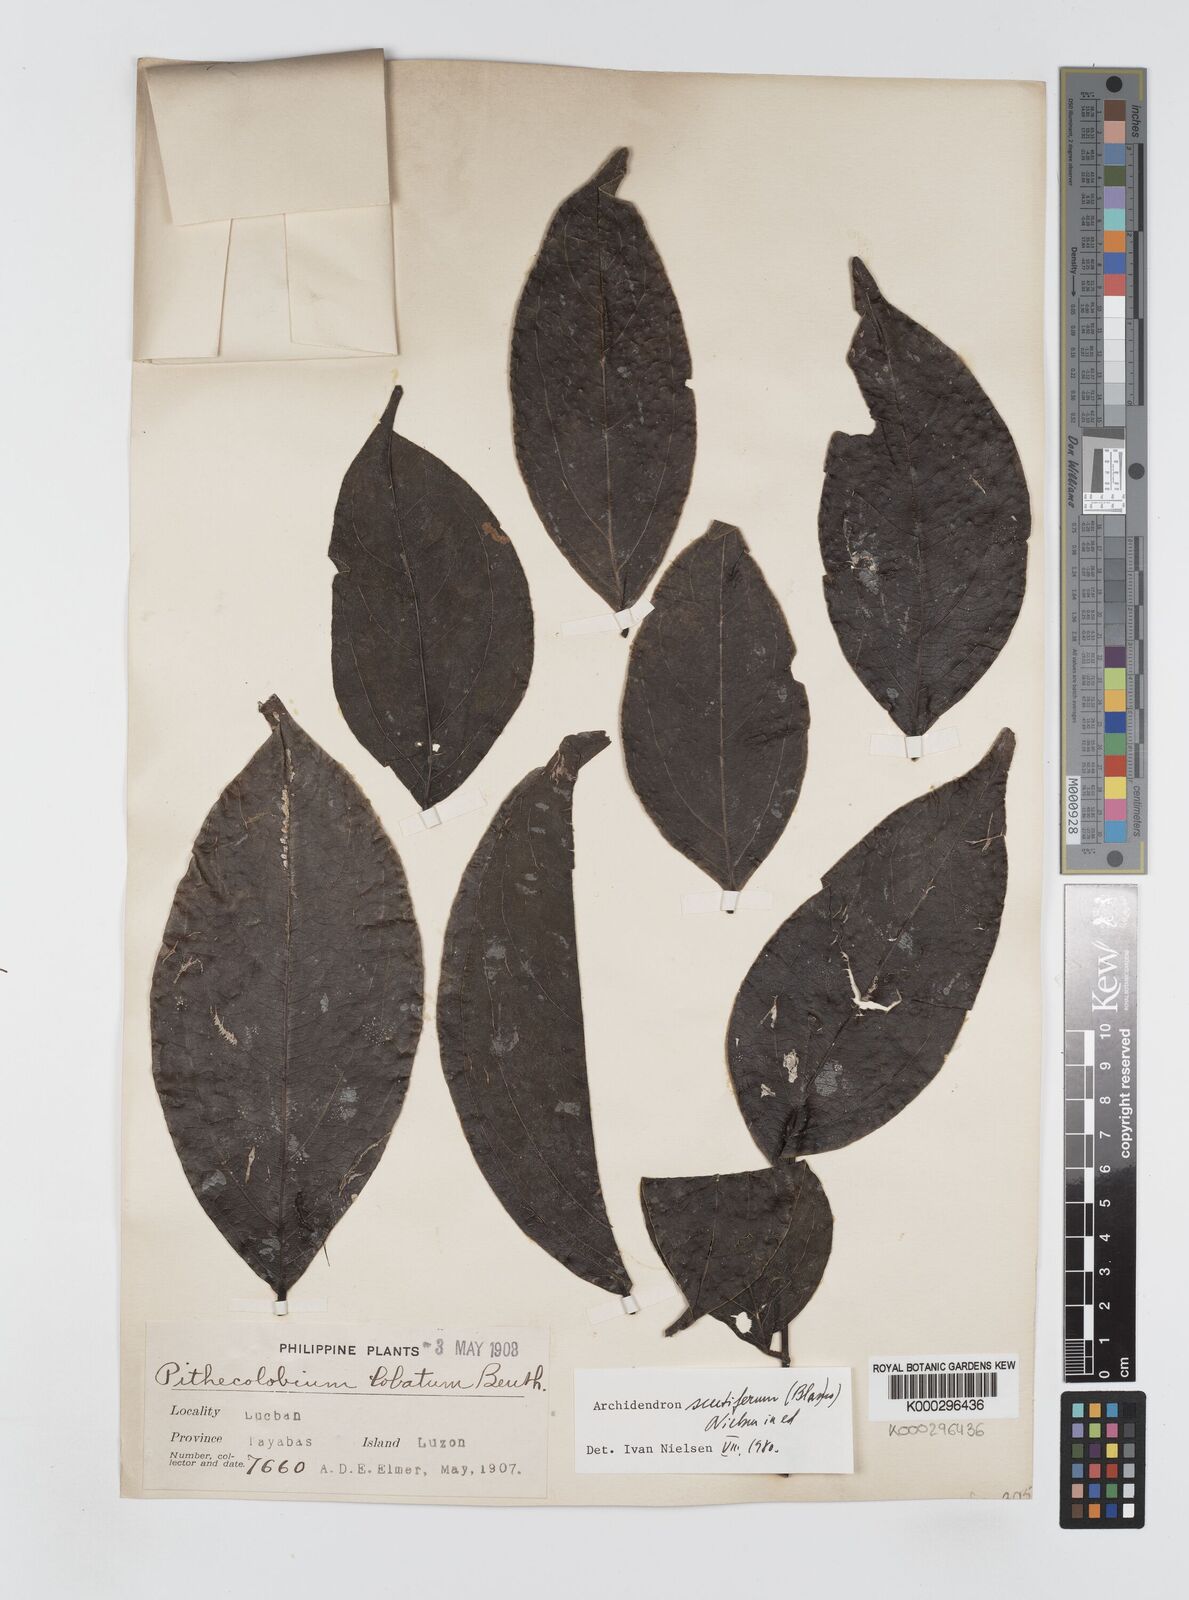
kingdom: Plantae
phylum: Tracheophyta
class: Magnoliopsida
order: Fabales
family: Fabaceae
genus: Archidendron
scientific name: Archidendron scutiferum
